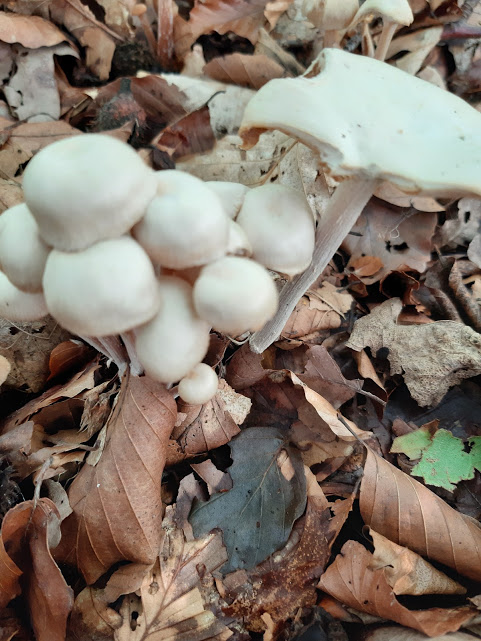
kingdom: Fungi
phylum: Basidiomycota
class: Agaricomycetes
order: Agaricales
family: Omphalotaceae
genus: Collybiopsis
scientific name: Collybiopsis confluens
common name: knippe-fladhat
